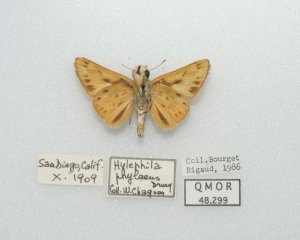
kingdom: Animalia
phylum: Arthropoda
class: Insecta
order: Lepidoptera
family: Hesperiidae
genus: Hylephila
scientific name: Hylephila phyleus
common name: Fiery Skipper
